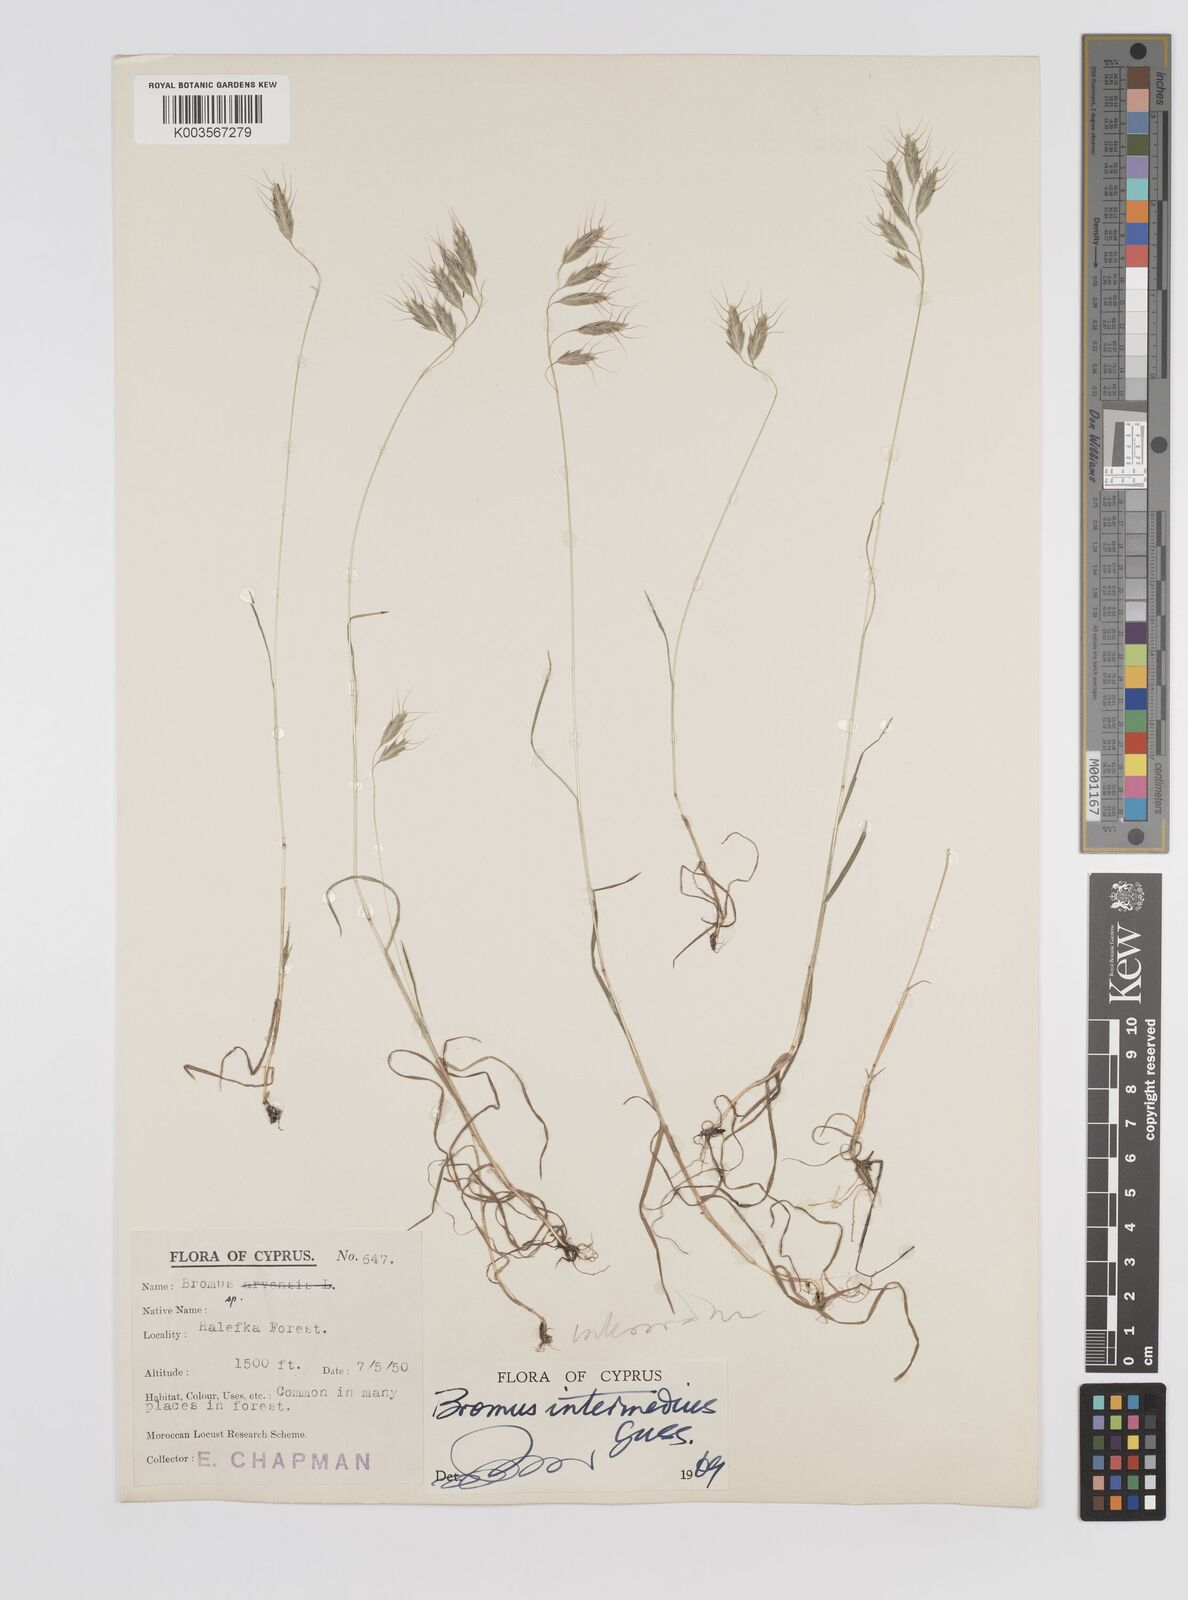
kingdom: Plantae
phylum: Tracheophyta
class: Liliopsida
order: Poales
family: Poaceae
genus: Bromus
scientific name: Bromus intermedius
